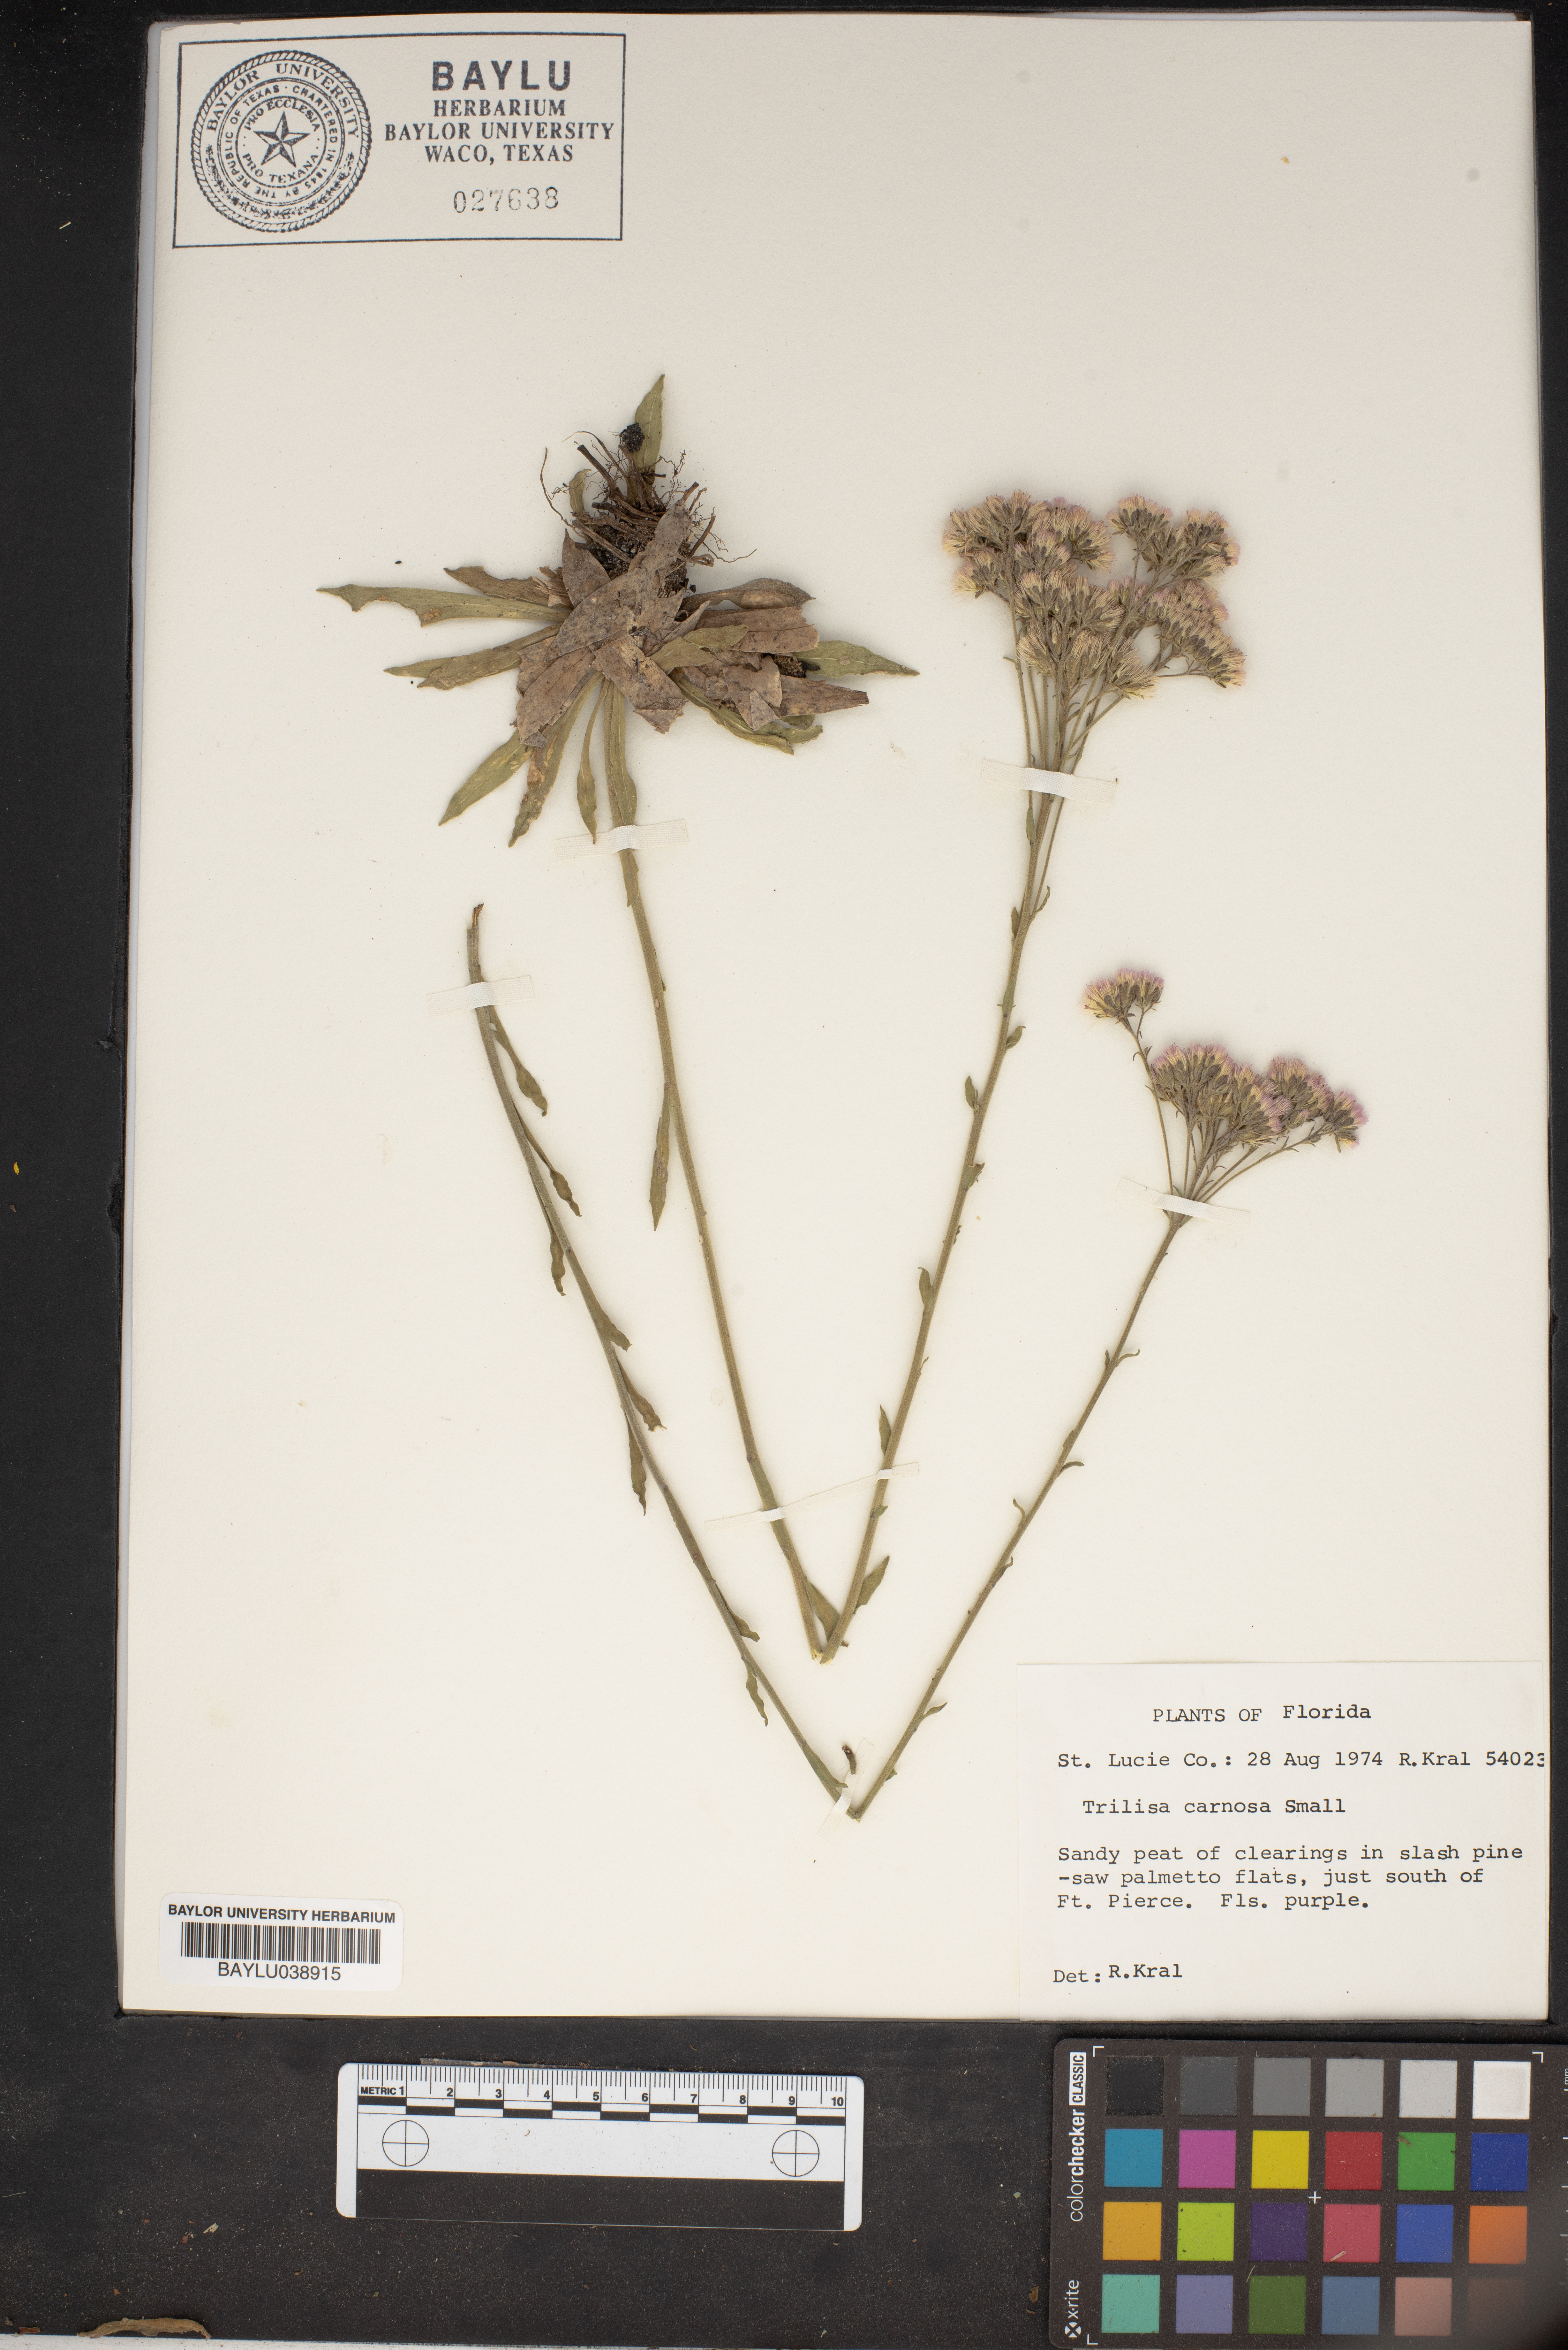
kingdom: Plantae
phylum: Tracheophyta
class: Magnoliopsida
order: Asterales
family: Asteraceae
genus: Carphephorus
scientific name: Carphephorus carnosus
